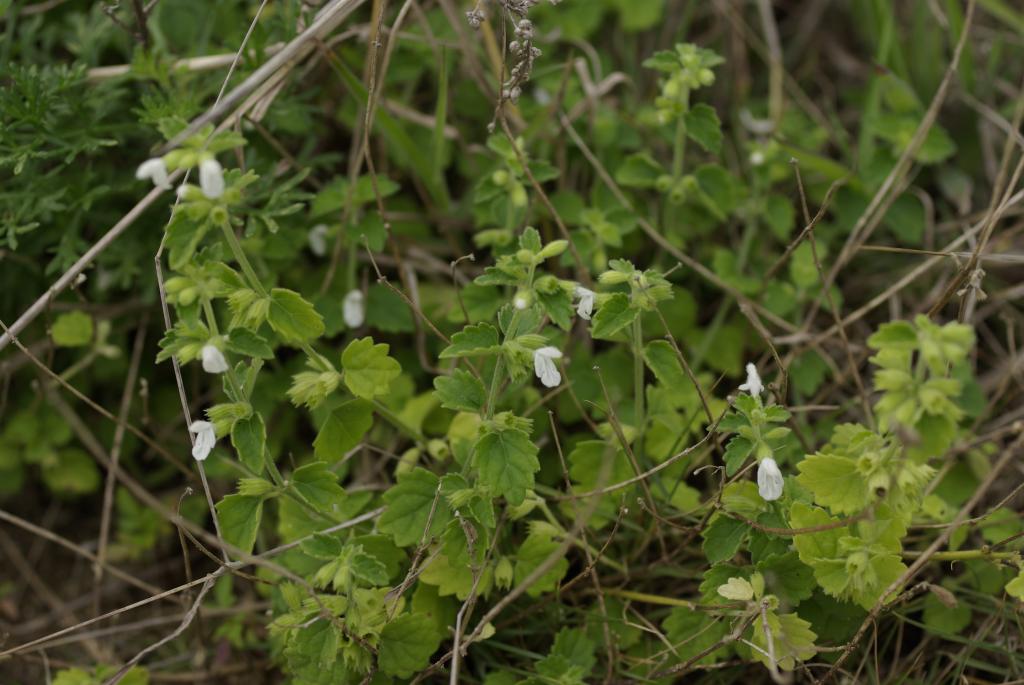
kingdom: Plantae
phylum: Tracheophyta
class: Magnoliopsida
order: Lamiales
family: Lamiaceae
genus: Leucas
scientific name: Leucas chinensis
